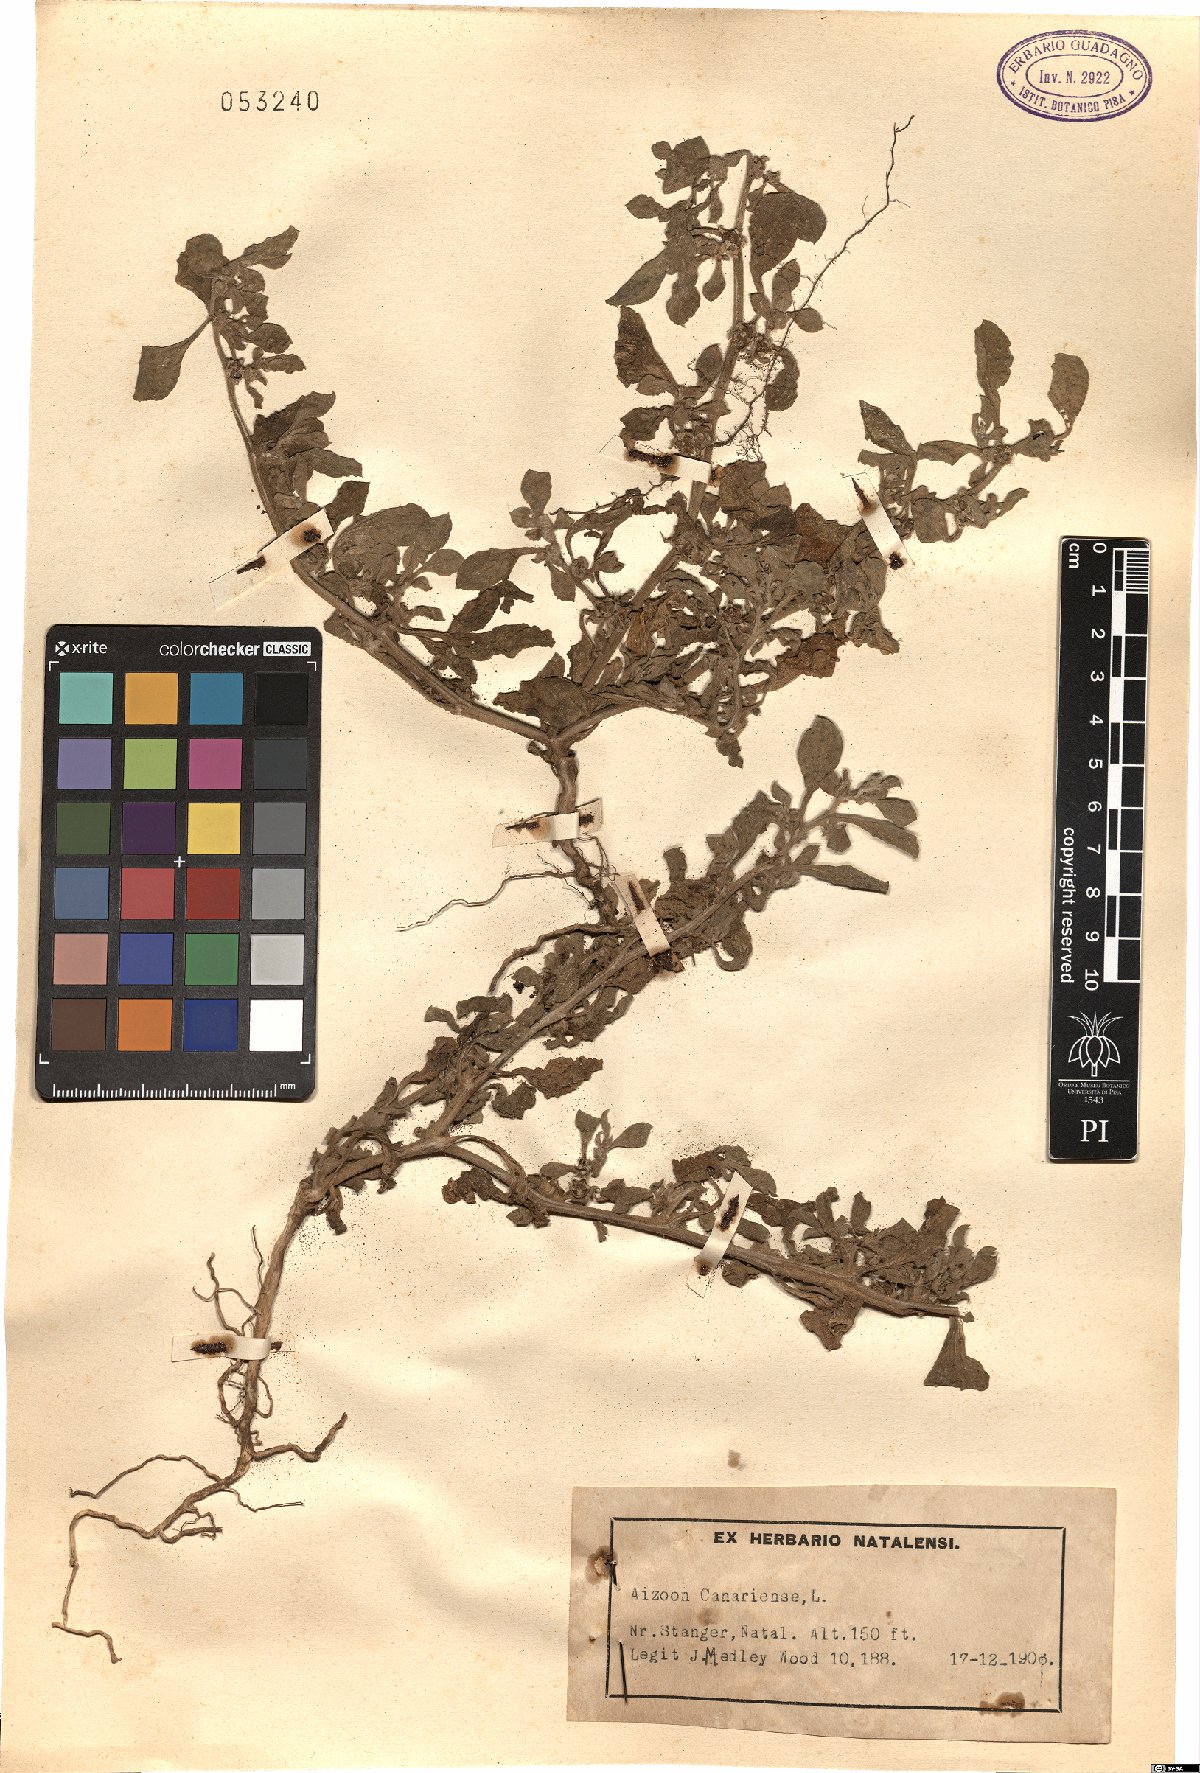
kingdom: Plantae
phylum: Tracheophyta
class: Magnoliopsida
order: Caryophyllales
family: Aizoaceae
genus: Aizoon
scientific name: Aizoon canariense
